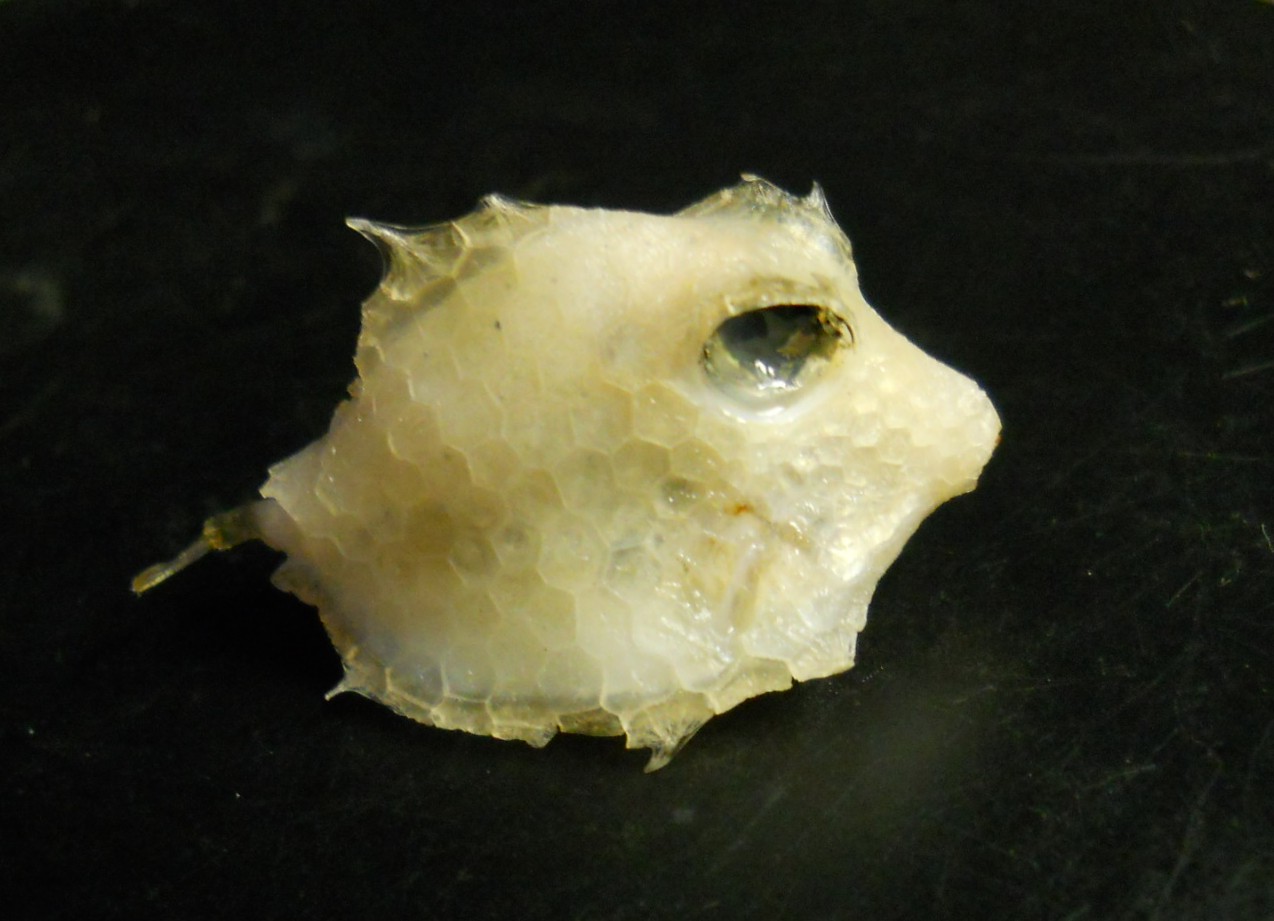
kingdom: Animalia
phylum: Chordata
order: Tetraodontiformes
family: Ostraciidae
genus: Tetrosomus
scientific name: Tetrosomus concatenatus
